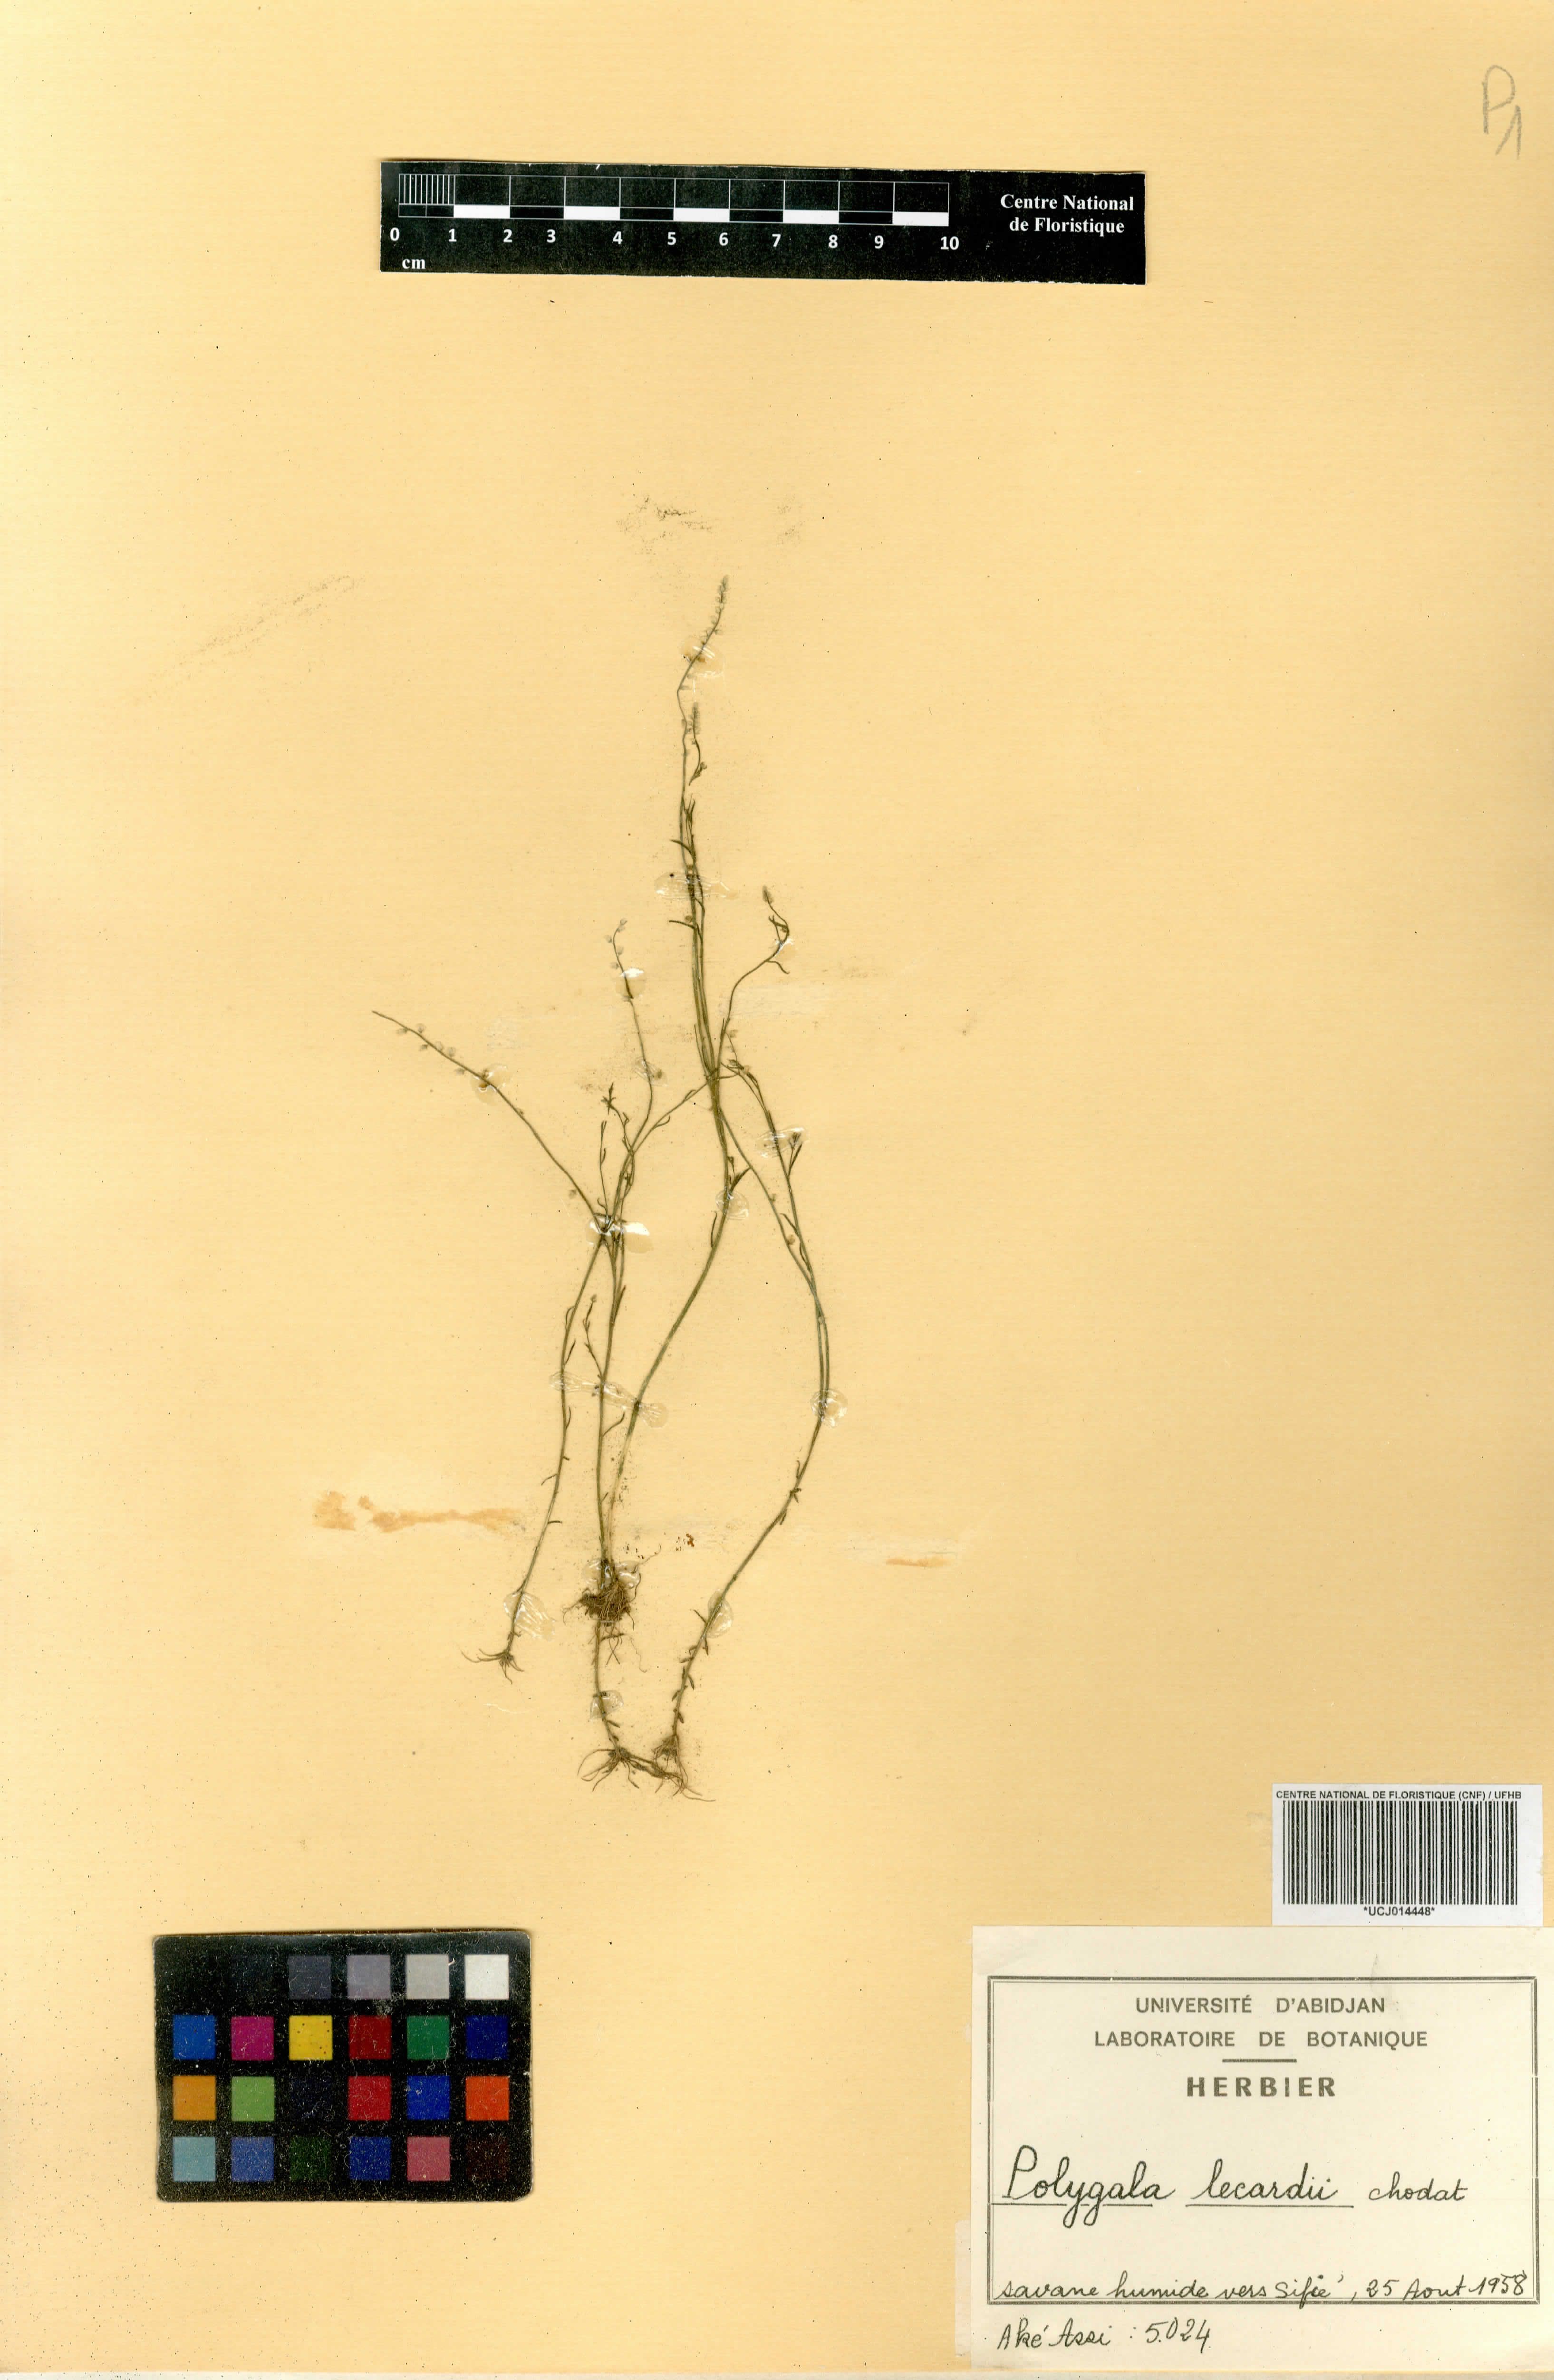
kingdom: Plantae
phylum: Tracheophyta
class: Magnoliopsida
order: Fabales
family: Polygalaceae
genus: Polygala
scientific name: Polygala lecardii
